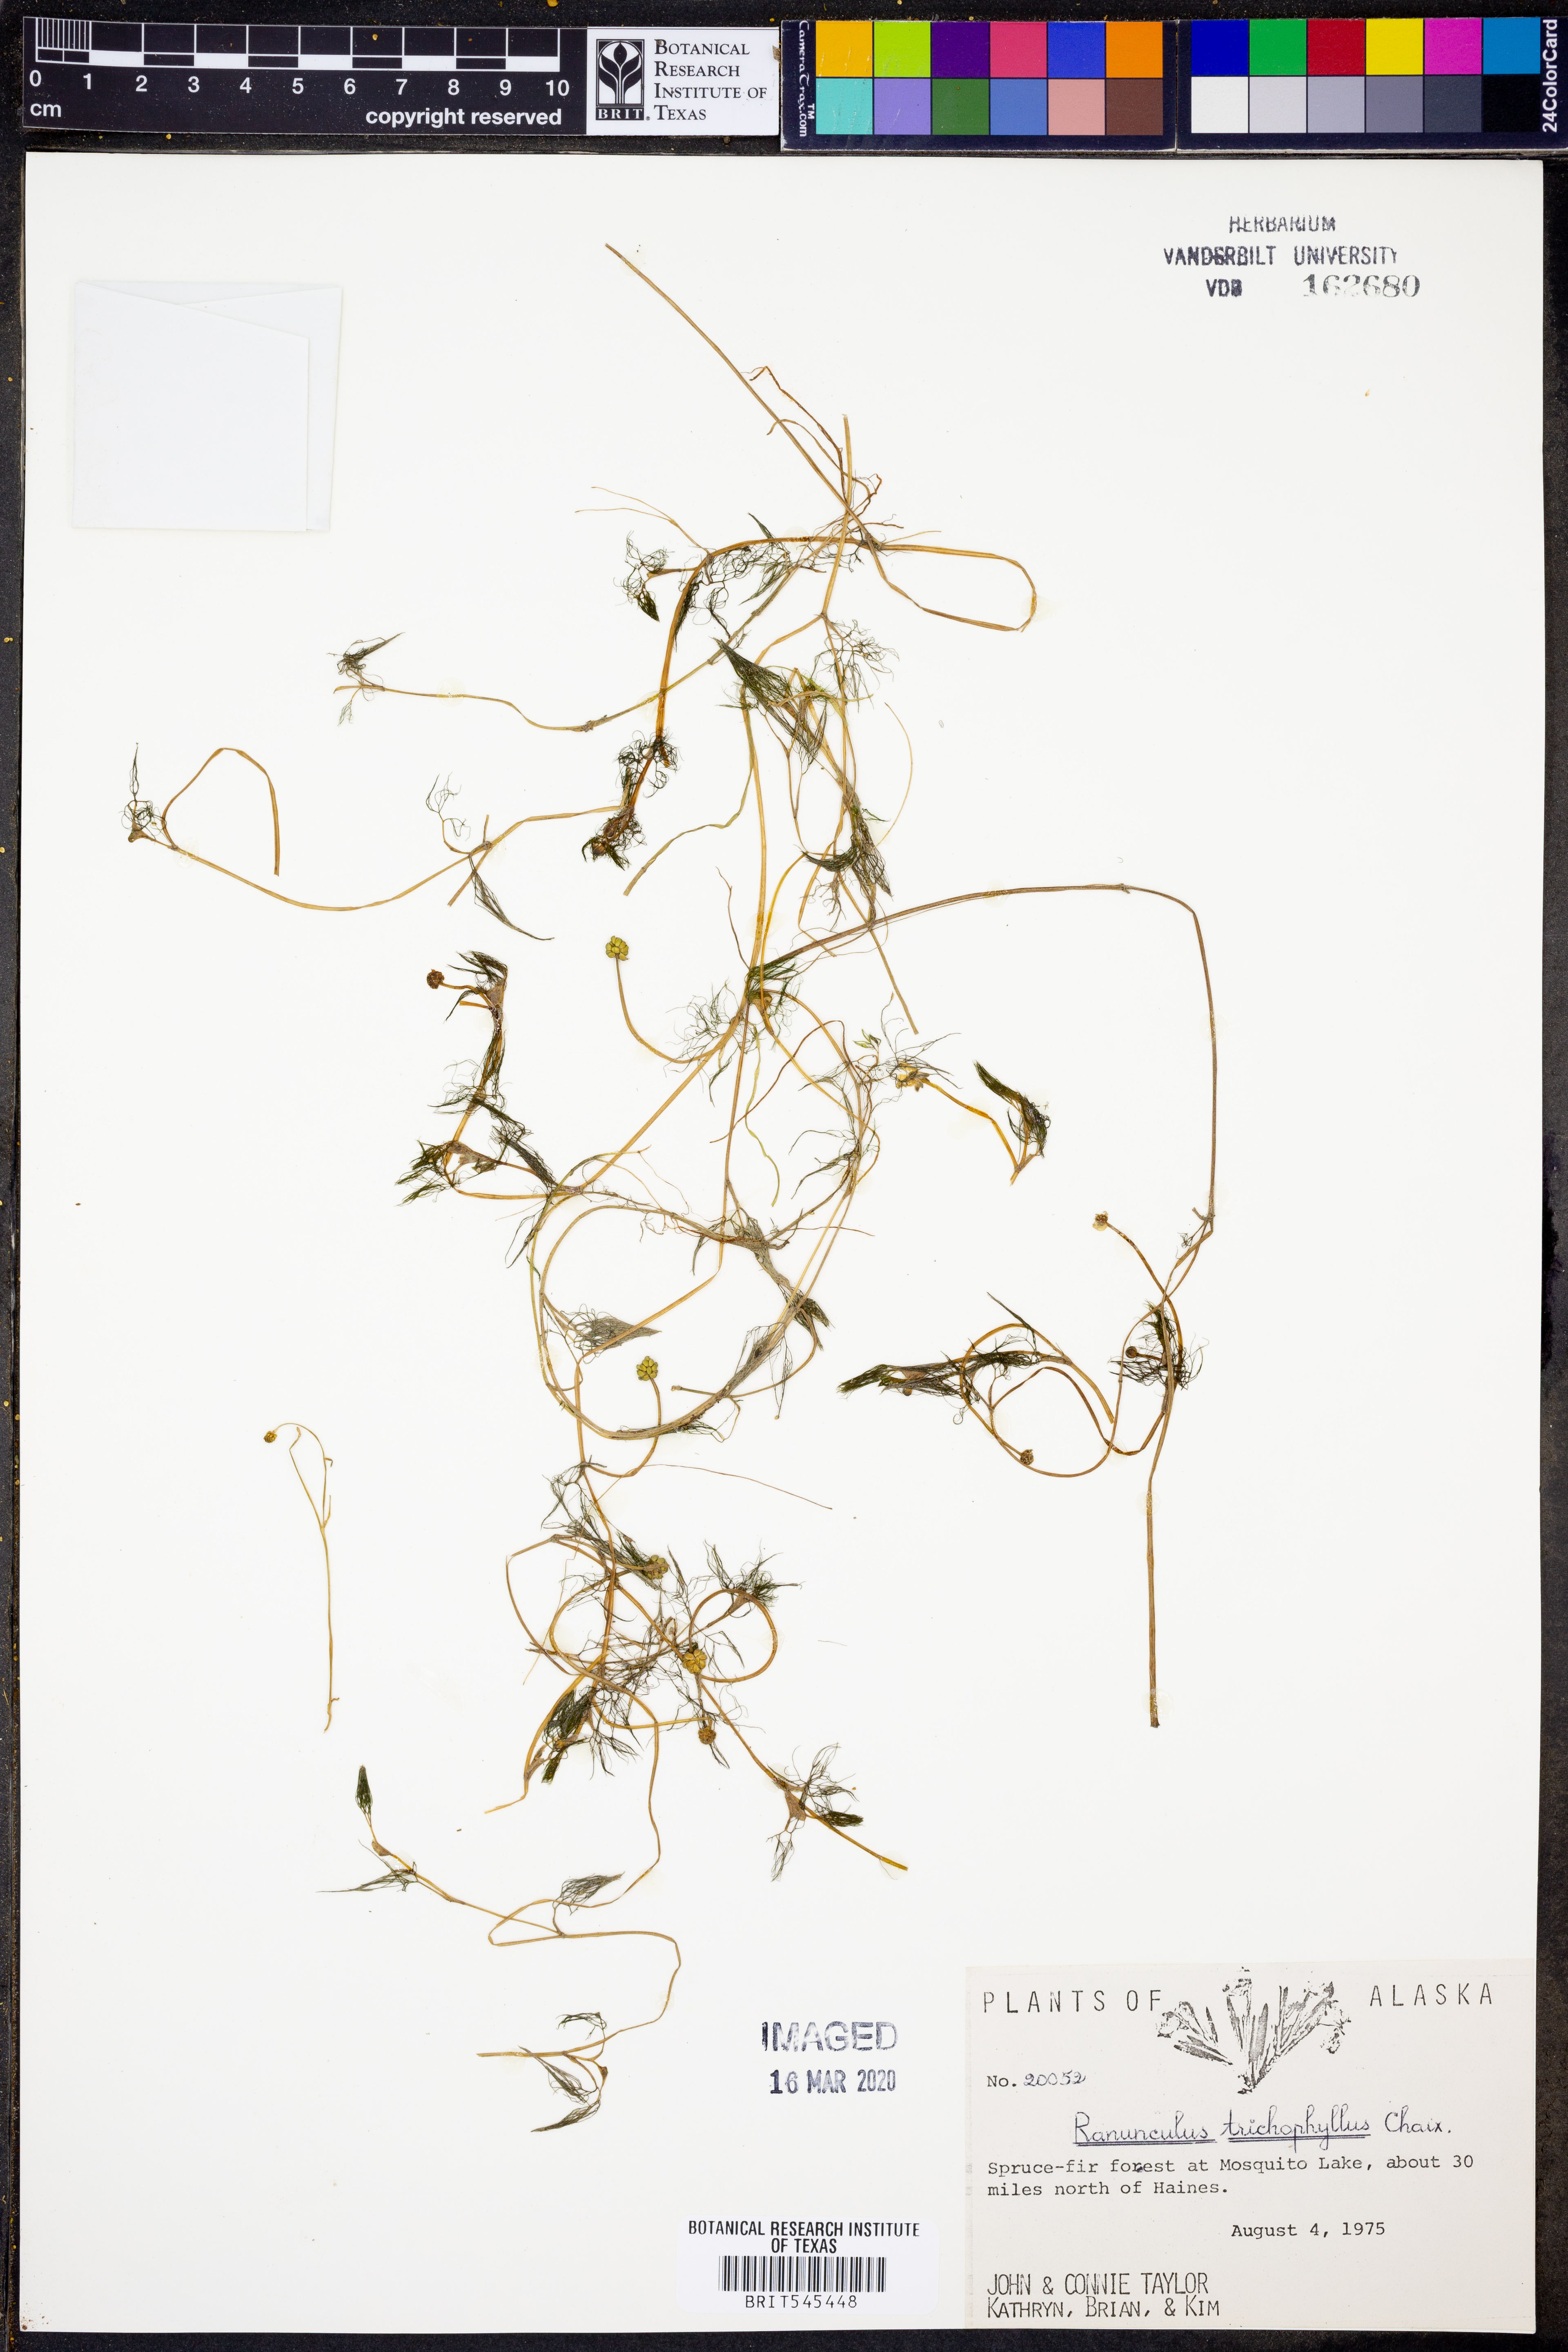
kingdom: Plantae
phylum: Tracheophyta
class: Magnoliopsida
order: Ranunculales
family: Ranunculaceae
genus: Ranunculus
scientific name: Ranunculus trichophyllus
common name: Thread-leaved water-crowfoot
